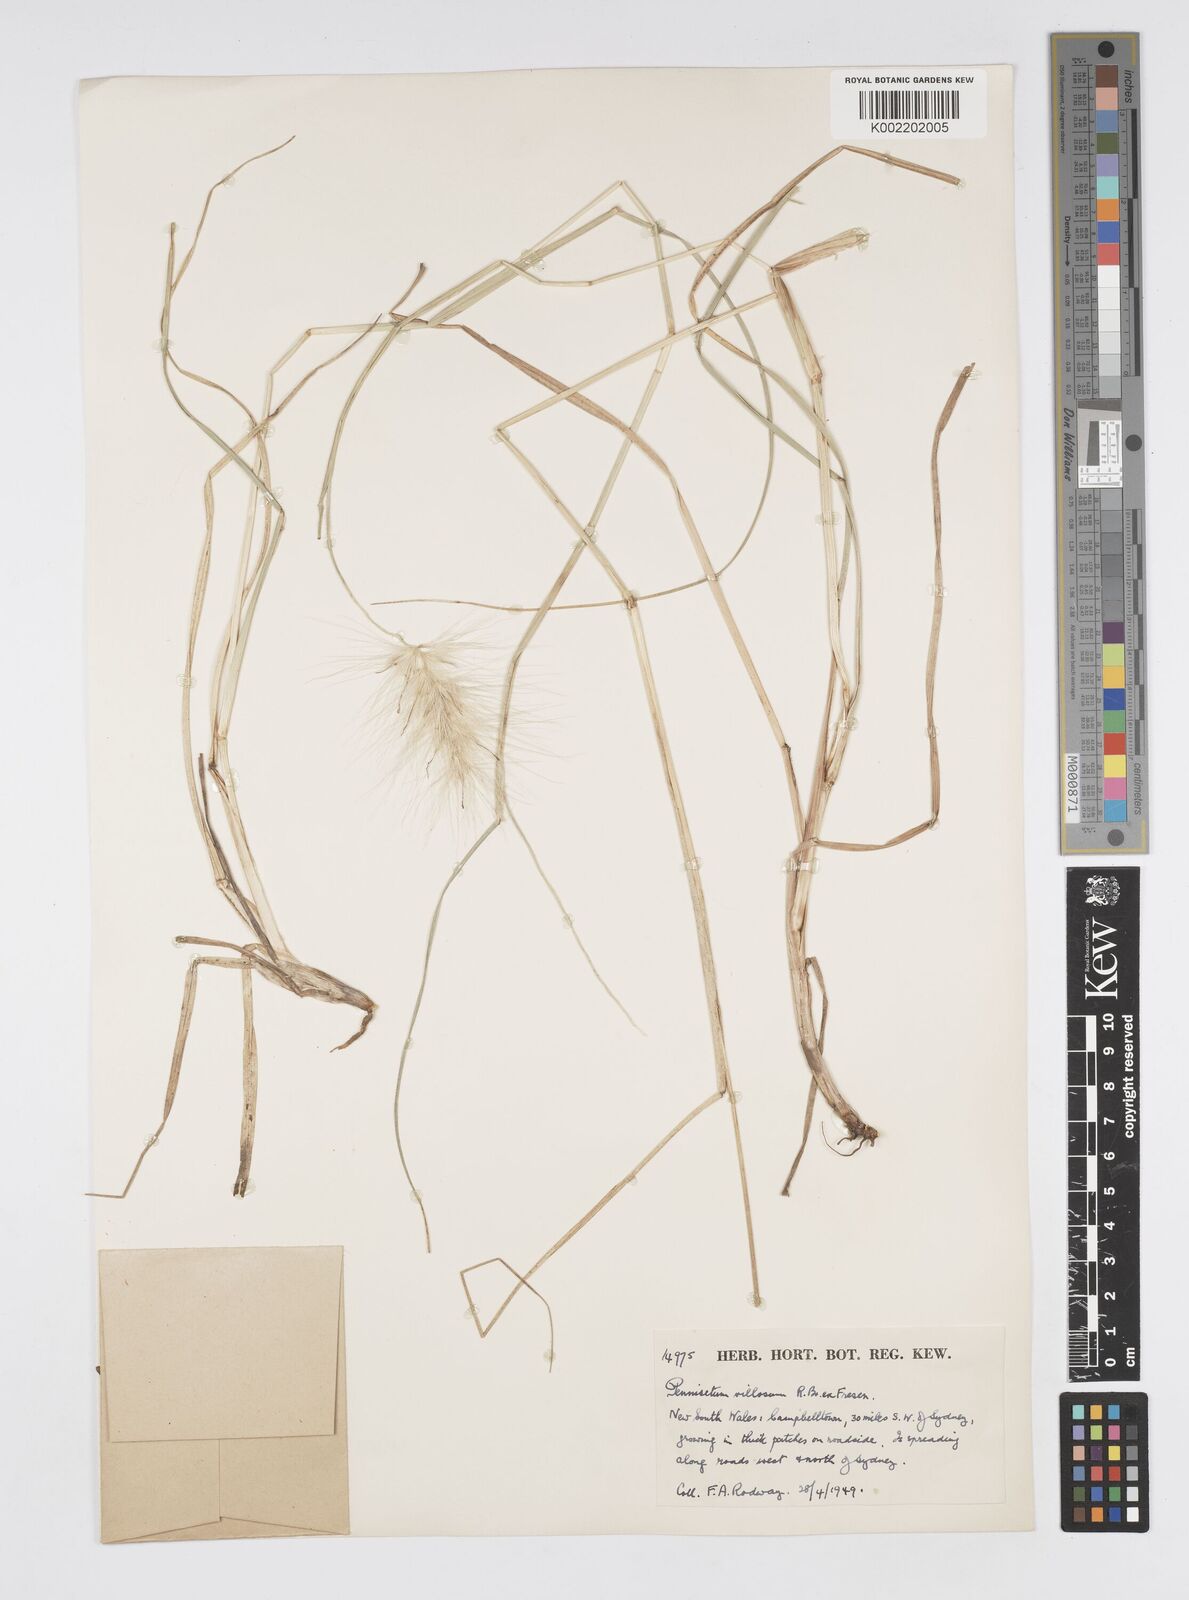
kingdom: Plantae
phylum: Tracheophyta
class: Liliopsida
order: Poales
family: Poaceae
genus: Cenchrus
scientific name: Cenchrus longisetus
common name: Feathertop
